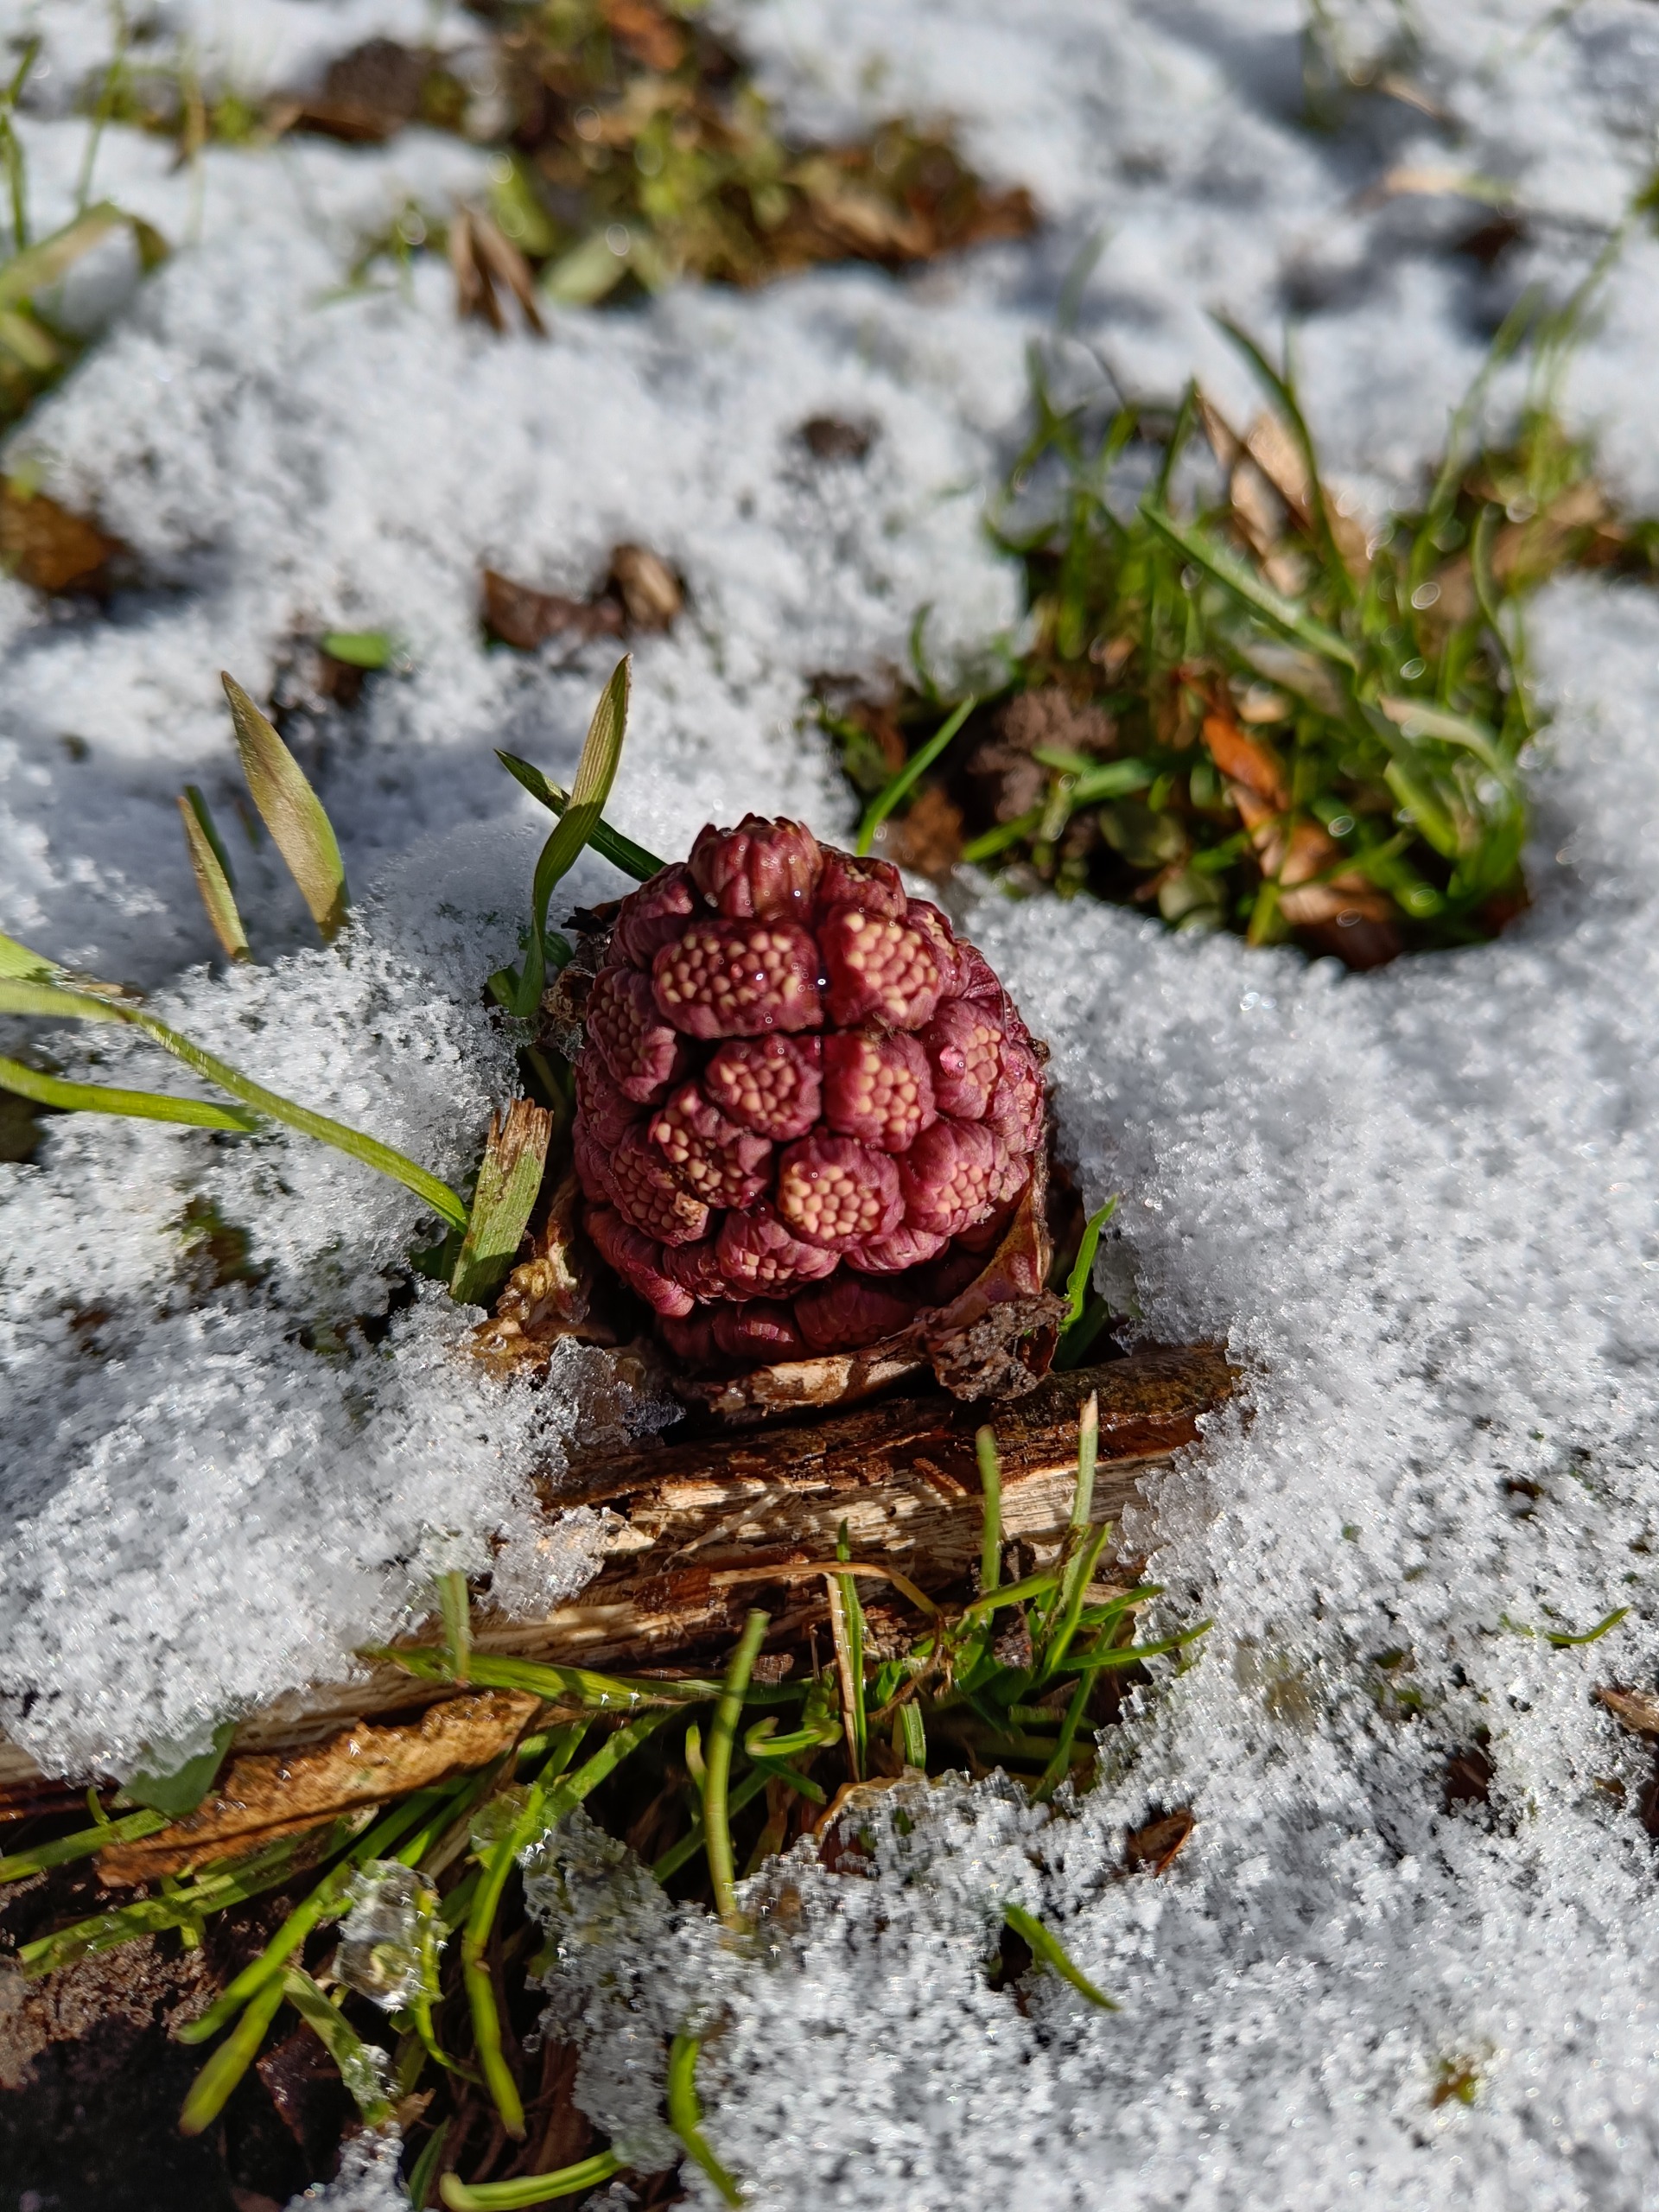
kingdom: Plantae
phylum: Tracheophyta
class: Magnoliopsida
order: Asterales
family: Asteraceae
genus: Petasites
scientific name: Petasites hybridus
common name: Rød hestehov
